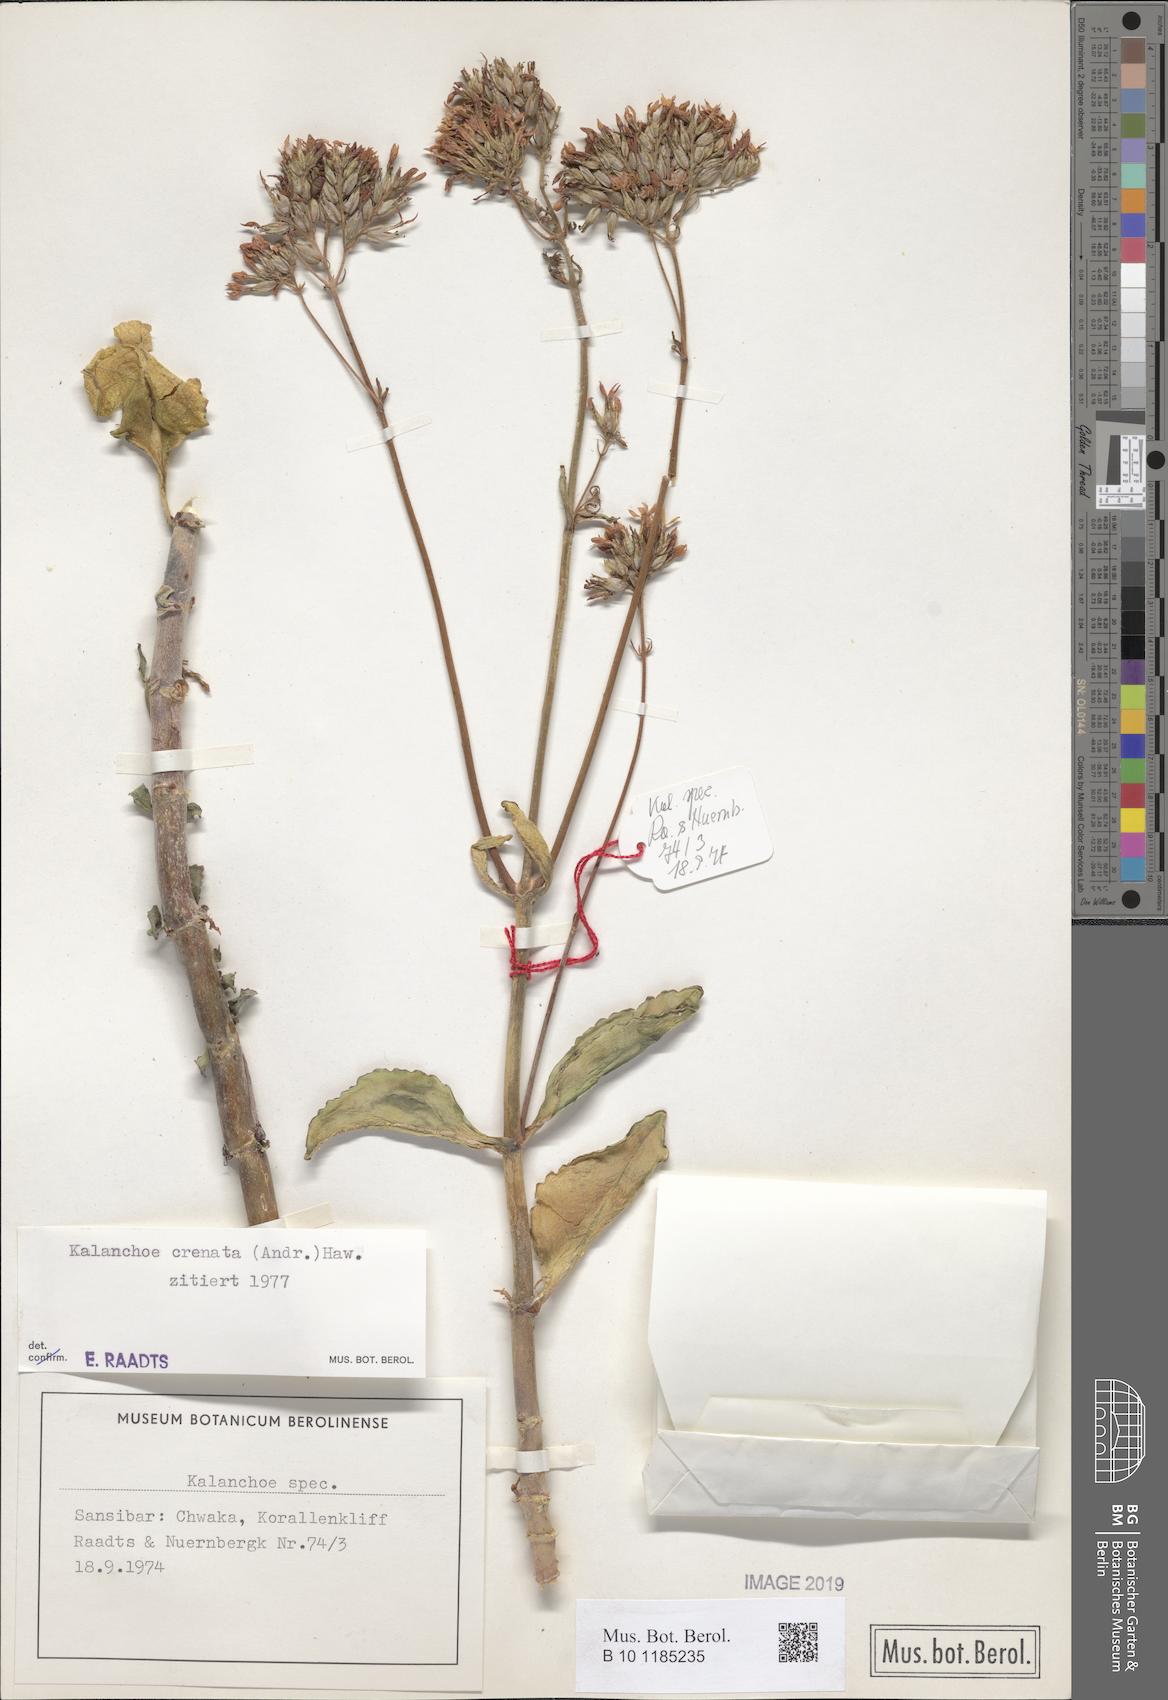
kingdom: Plantae
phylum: Tracheophyta
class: Magnoliopsida
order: Saxifragales
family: Crassulaceae
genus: Kalanchoe
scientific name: Kalanchoe crenata
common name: Neverdie
